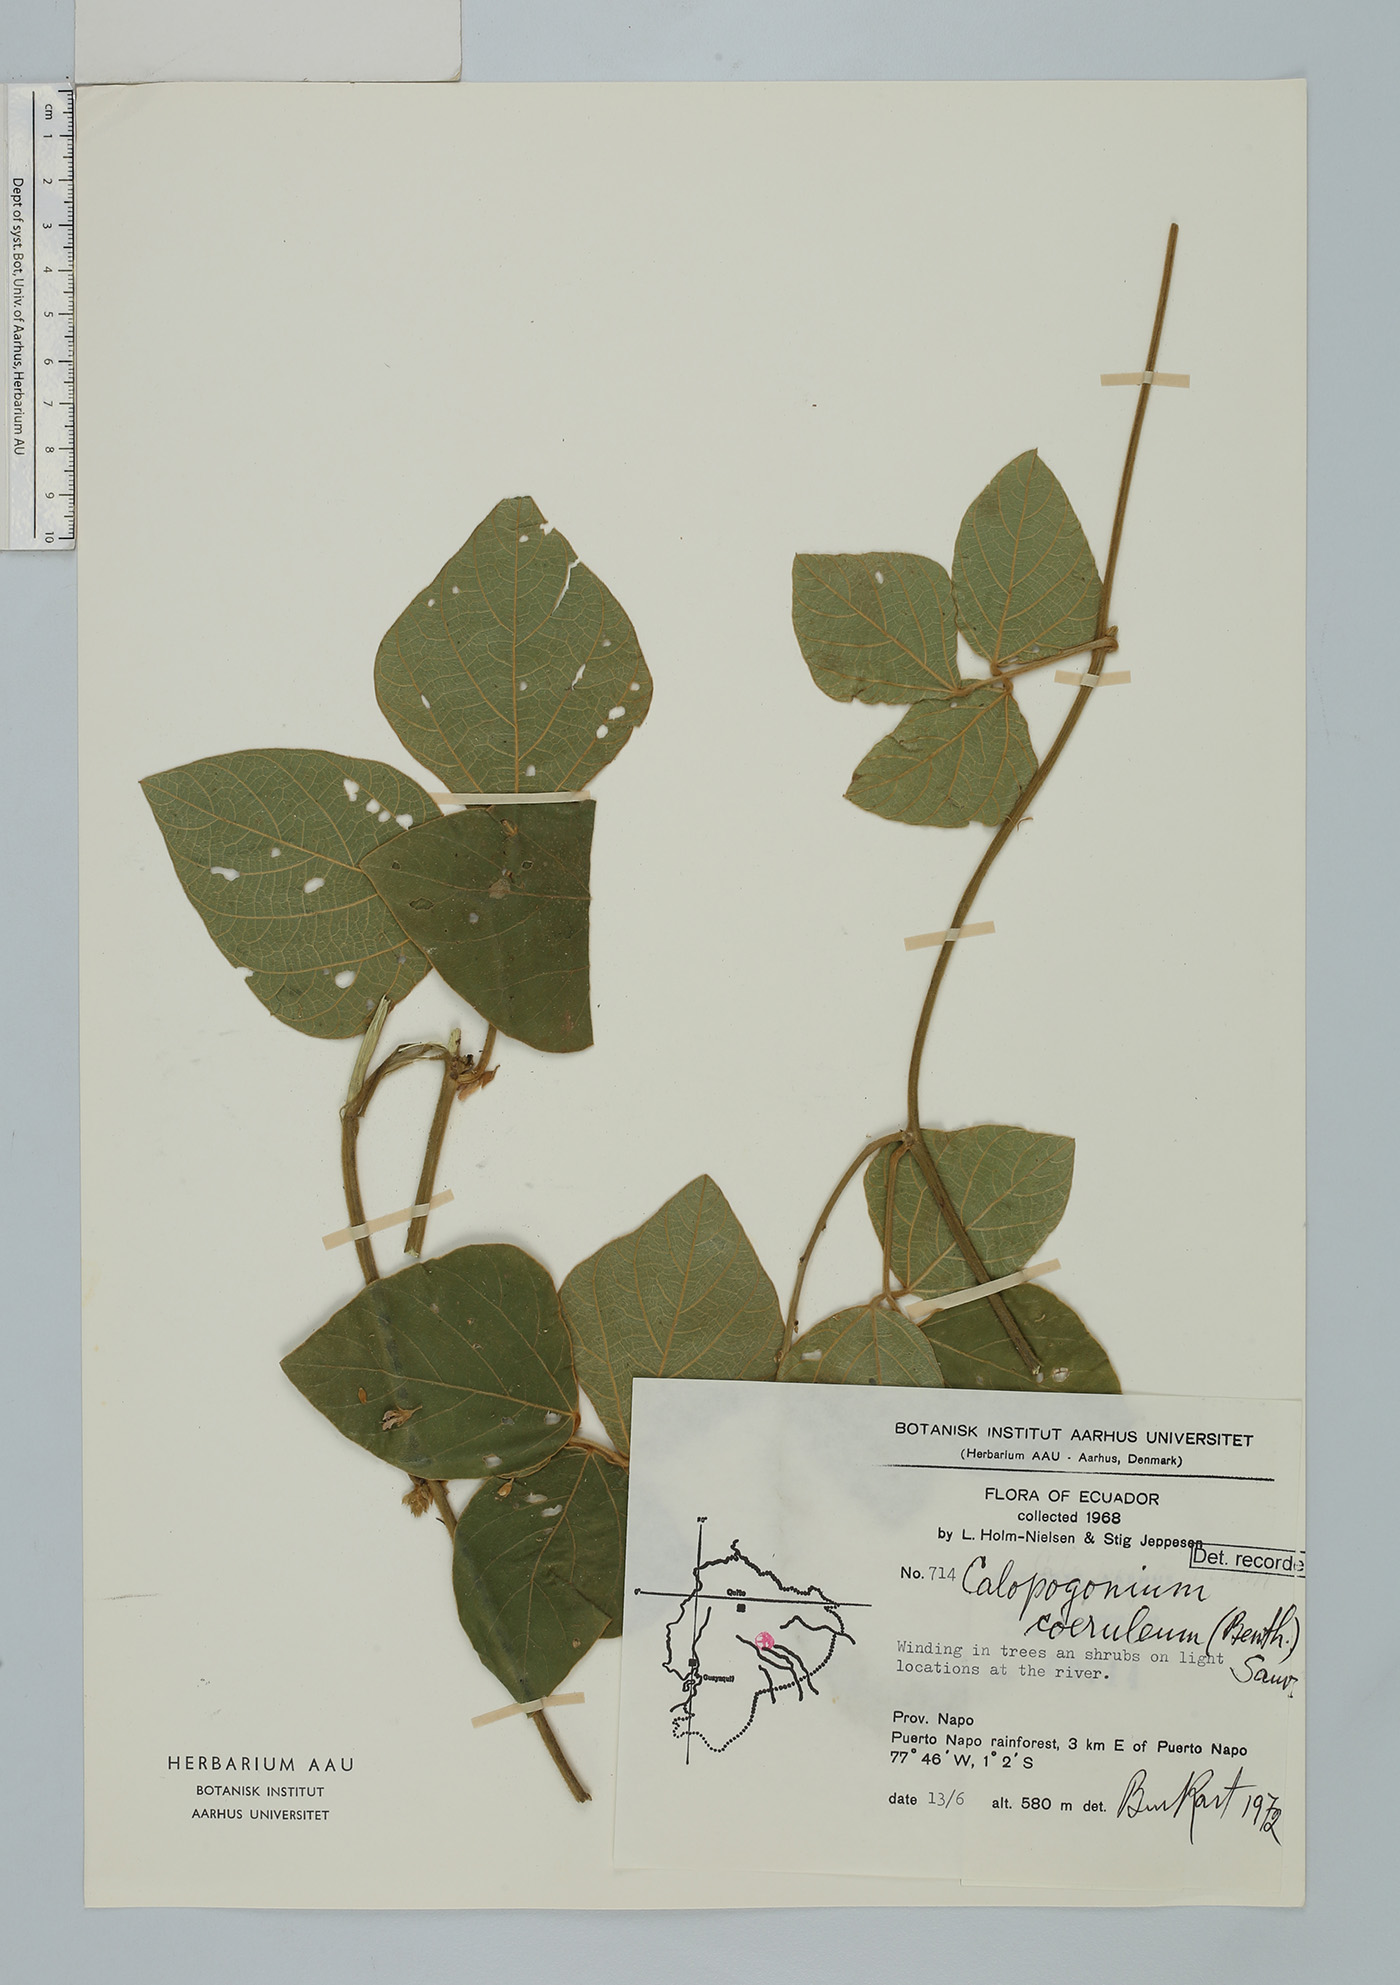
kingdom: Plantae
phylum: Tracheophyta
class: Magnoliopsida
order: Fabales
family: Fabaceae
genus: Calopogonium
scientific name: Calopogonium caeruleum
